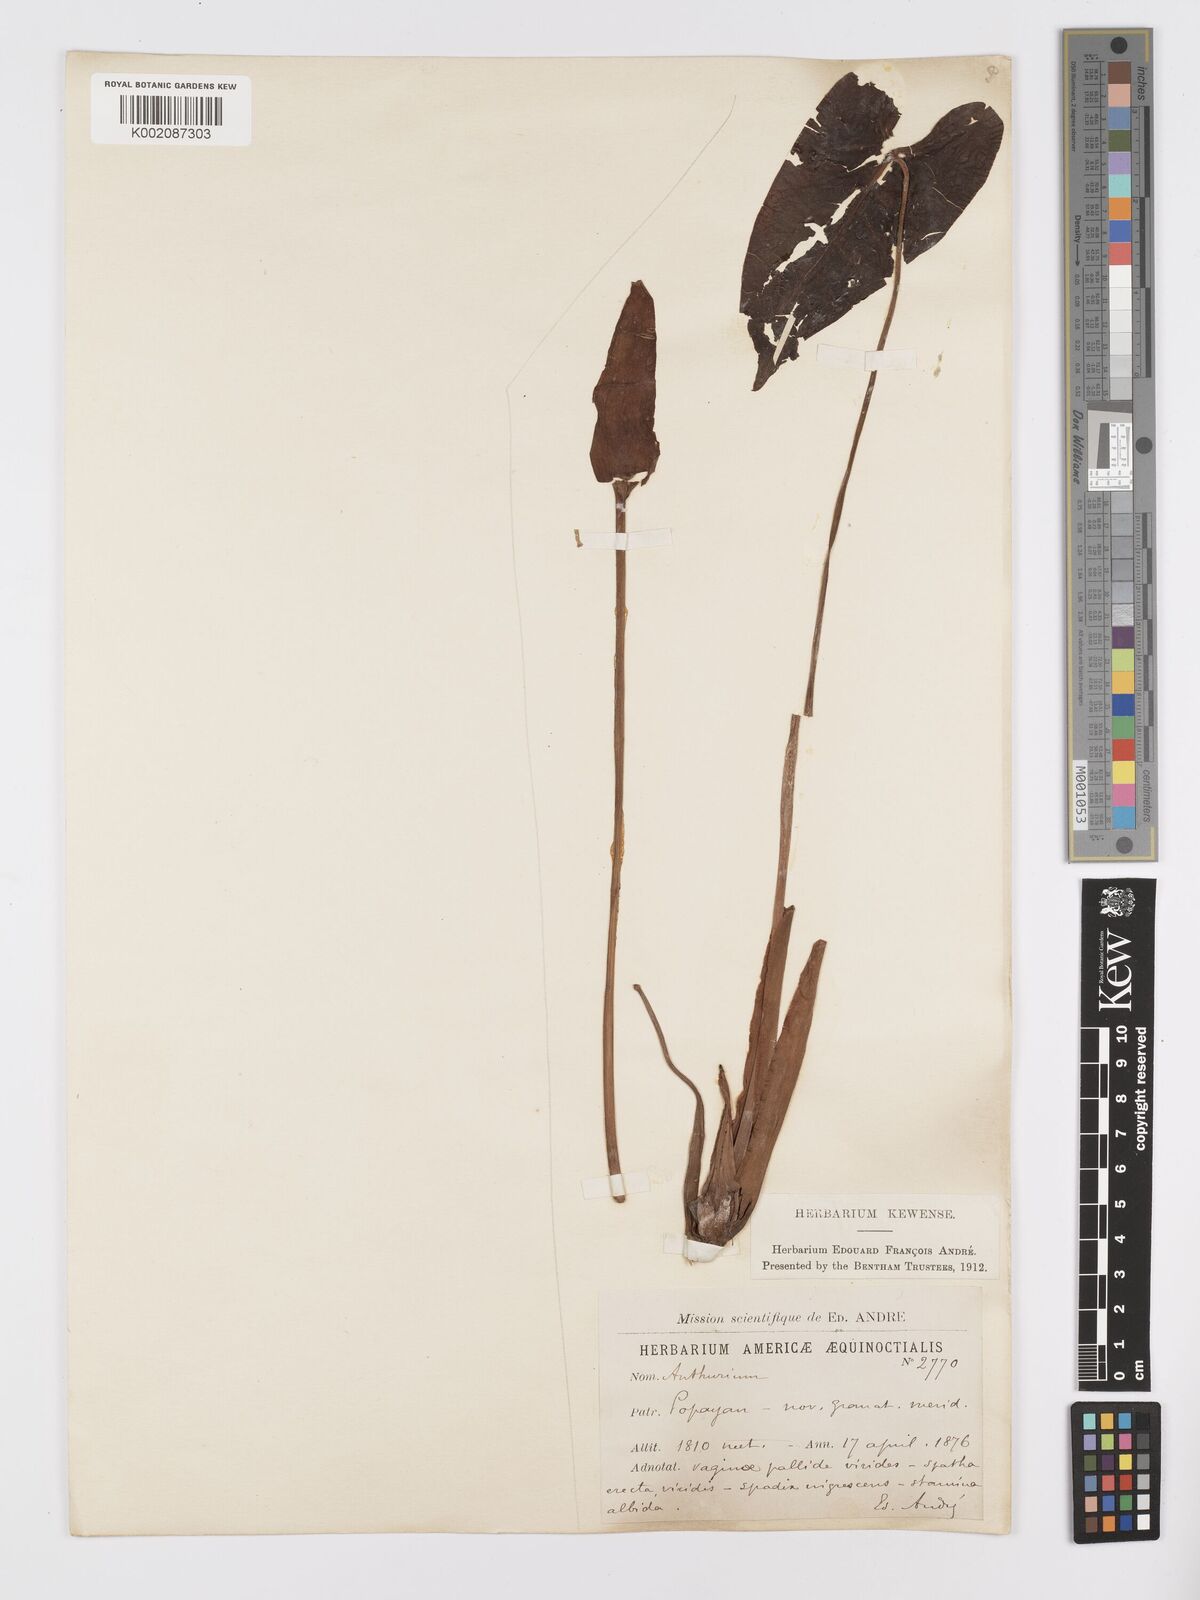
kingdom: Plantae
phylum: Tracheophyta
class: Liliopsida
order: Alismatales
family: Araceae
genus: Anthurium
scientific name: Anthurium
